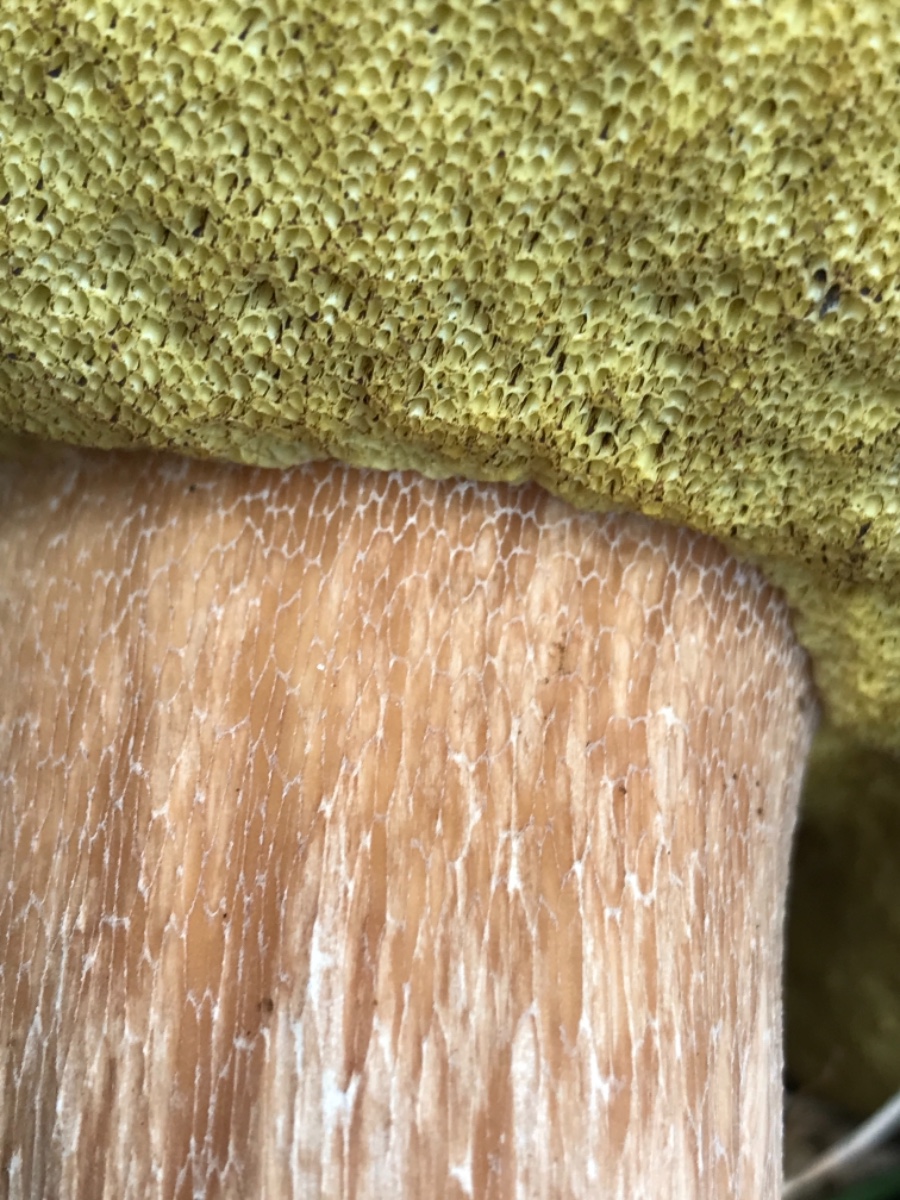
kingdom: Fungi
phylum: Basidiomycota
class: Agaricomycetes
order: Boletales
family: Boletaceae
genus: Boletus
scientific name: Boletus edulis
